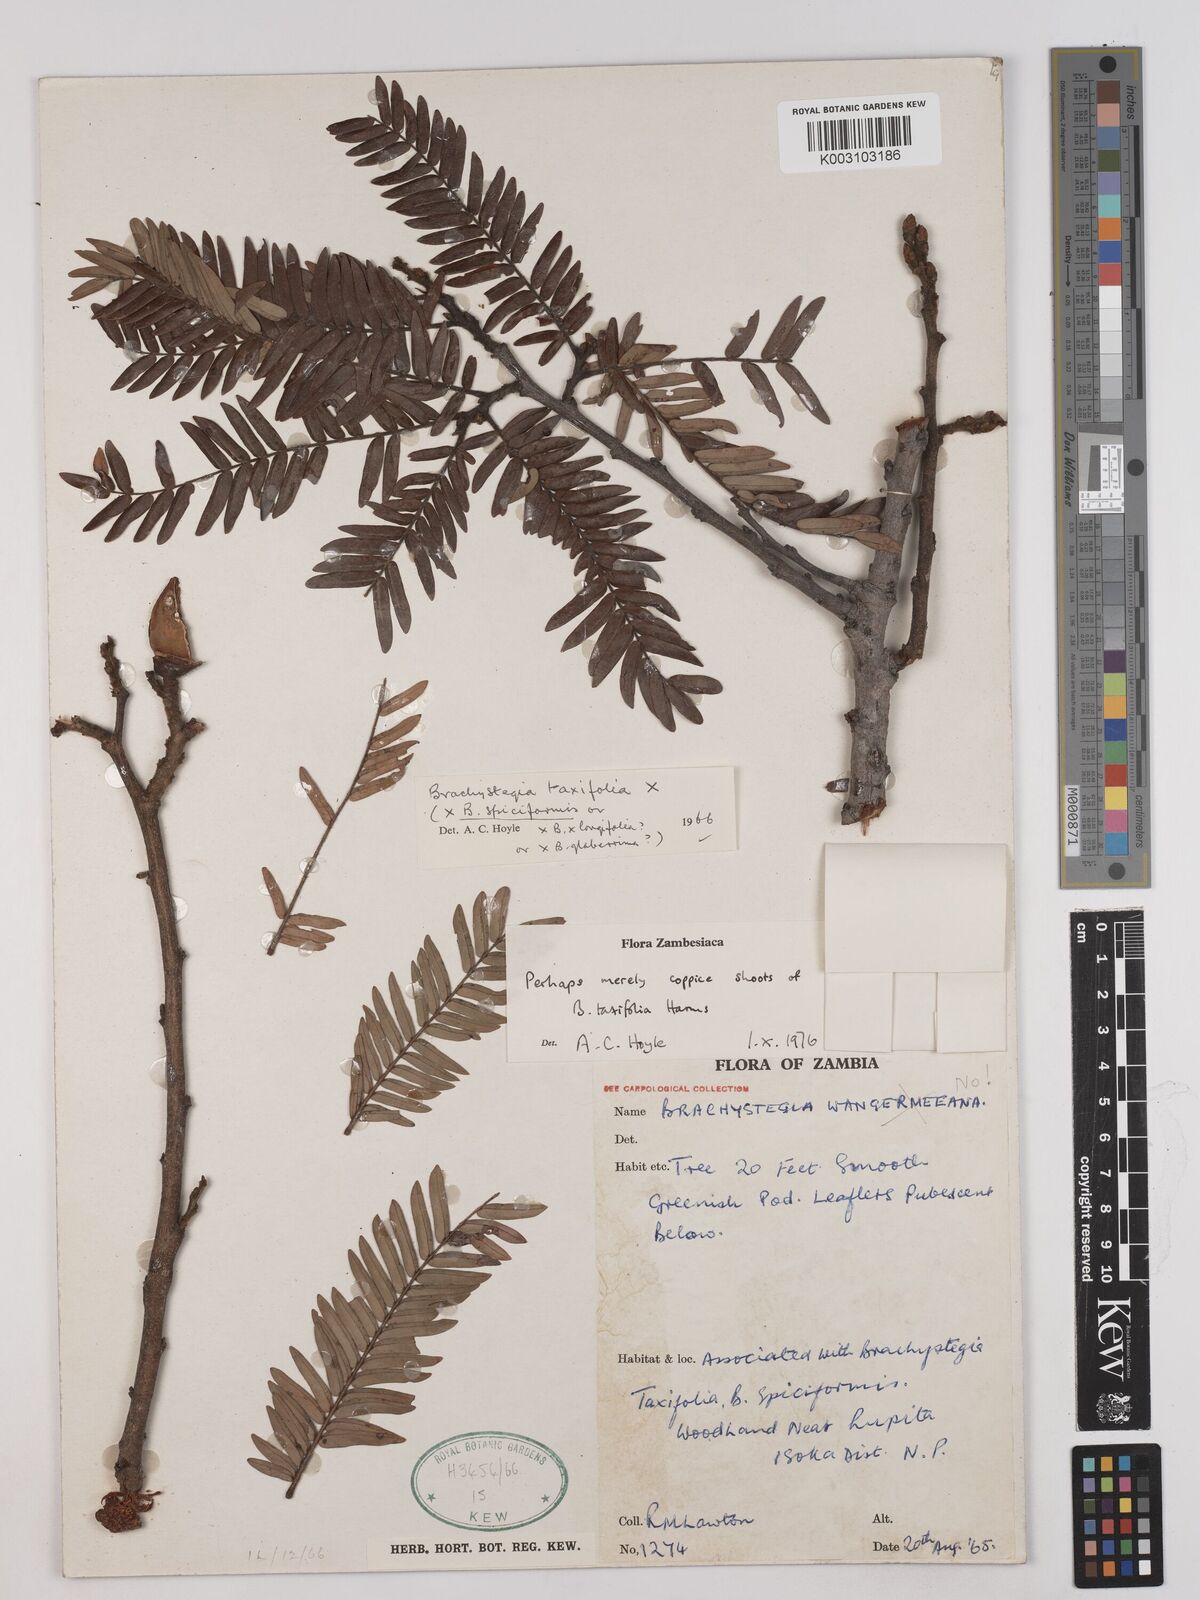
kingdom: Plantae
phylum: Tracheophyta
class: Magnoliopsida
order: Fabales
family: Fabaceae
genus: Brachystegia
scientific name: Brachystegia taxifolia
